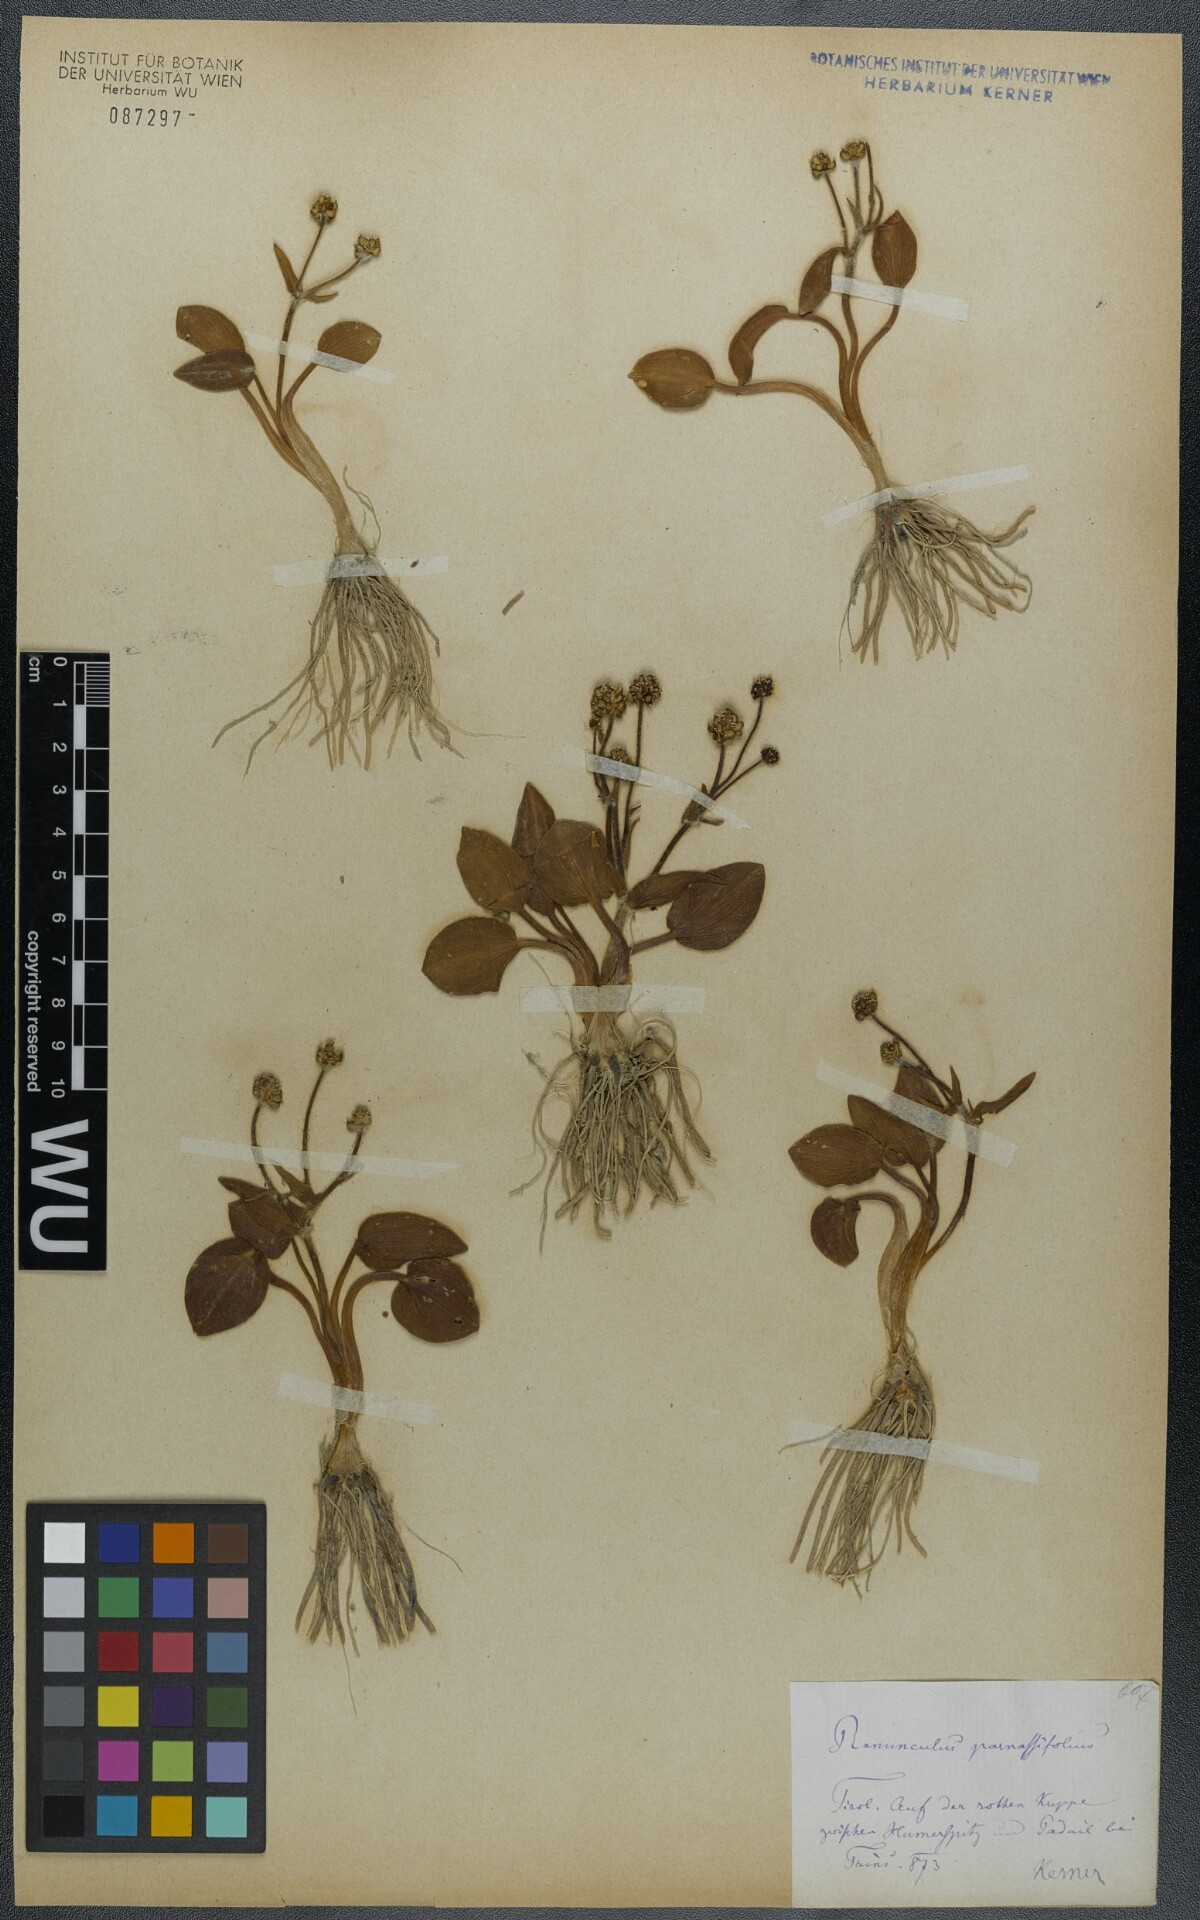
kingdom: Plantae
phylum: Tracheophyta
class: Magnoliopsida
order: Ranunculales
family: Ranunculaceae
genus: Ranunculus
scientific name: Ranunculus parnassiifolius
